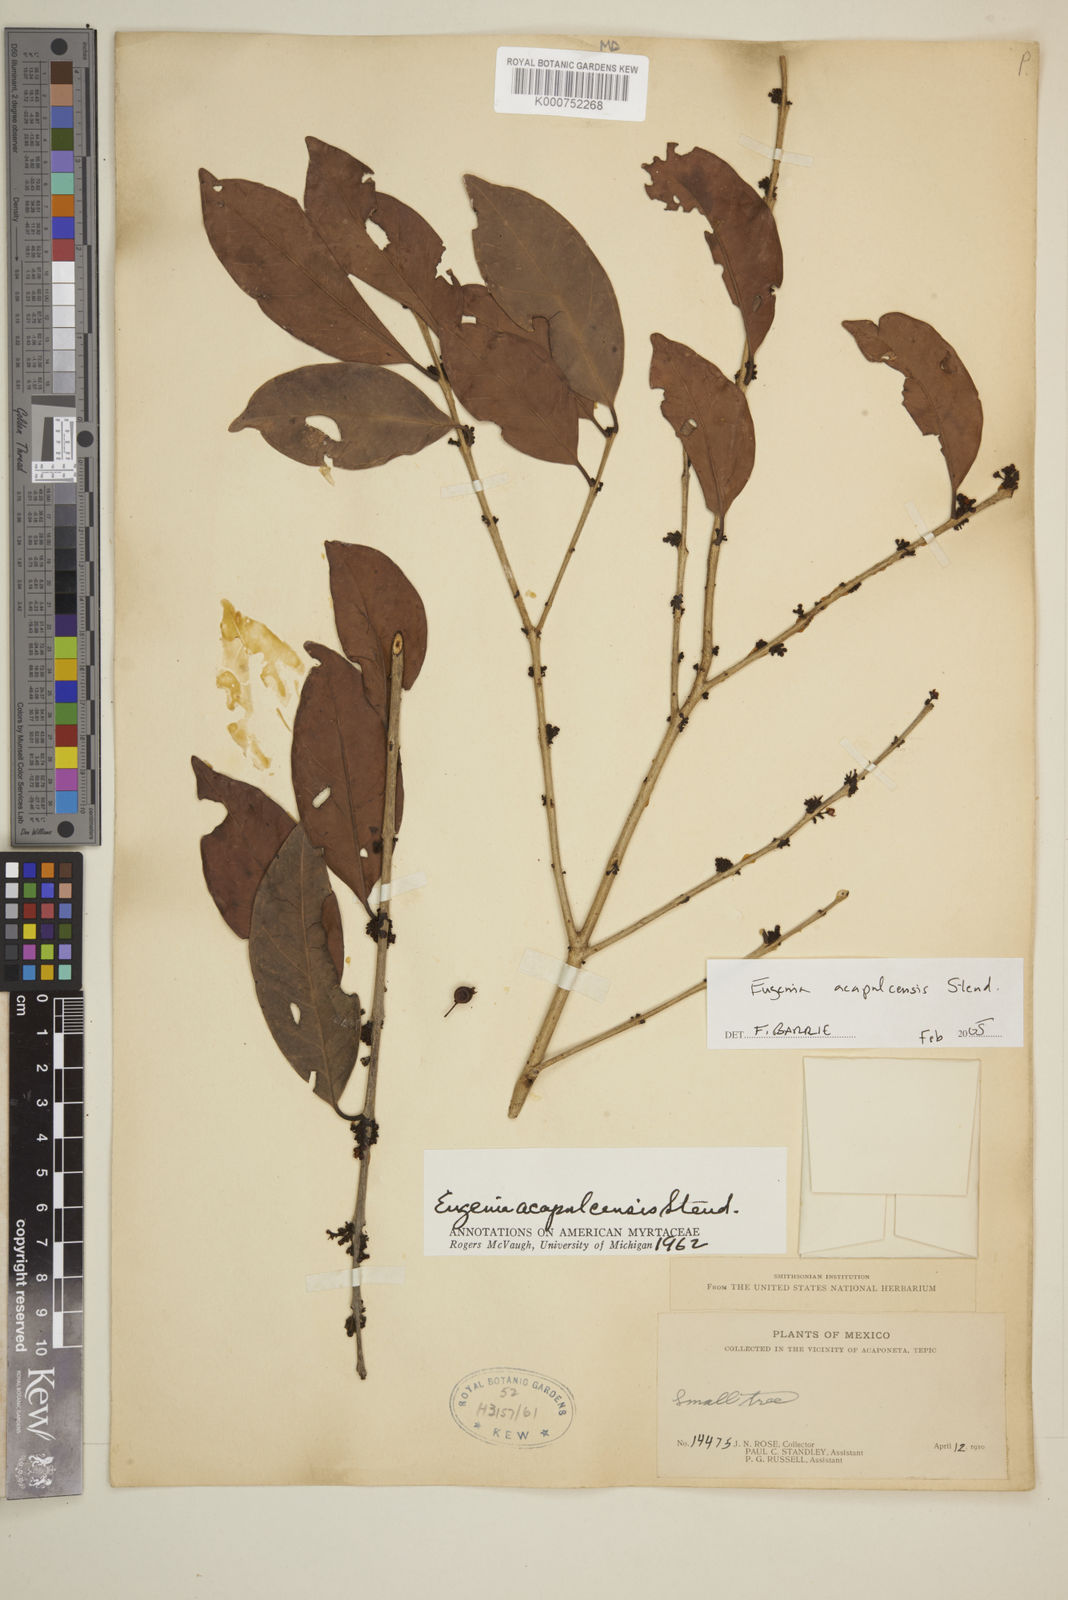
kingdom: Plantae
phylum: Tracheophyta
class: Magnoliopsida
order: Myrtales
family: Myrtaceae
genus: Eugenia
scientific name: Eugenia acapulcensis
